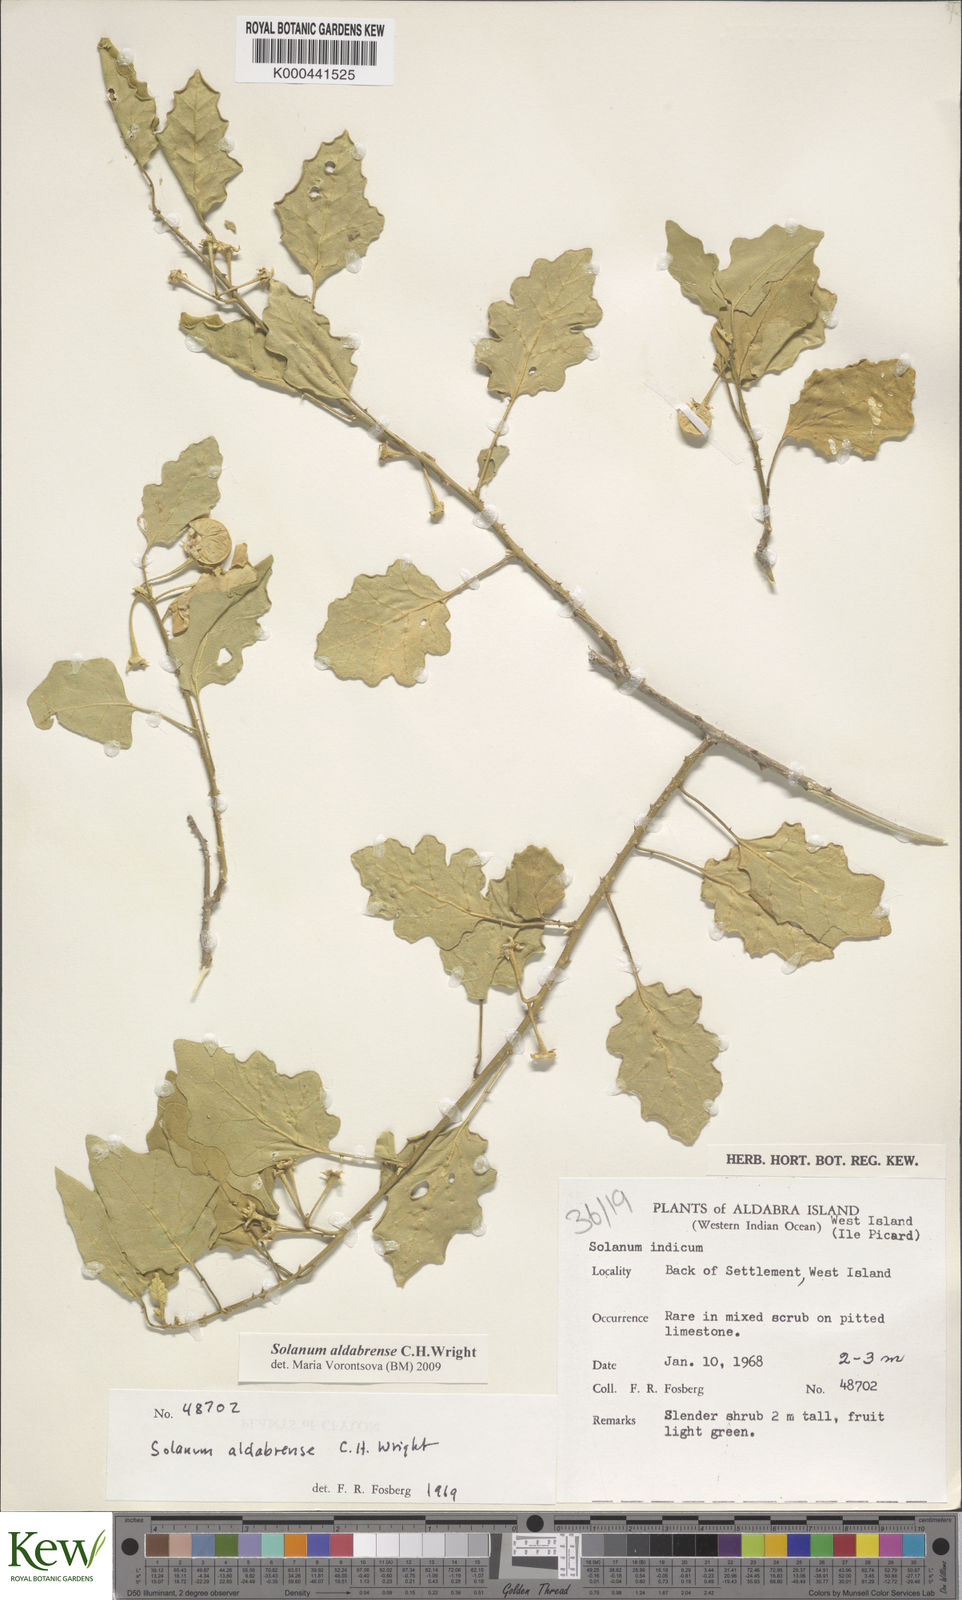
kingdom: Plantae
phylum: Tracheophyta
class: Magnoliopsida
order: Solanales
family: Solanaceae
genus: Solanum
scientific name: Solanum aldabrense
